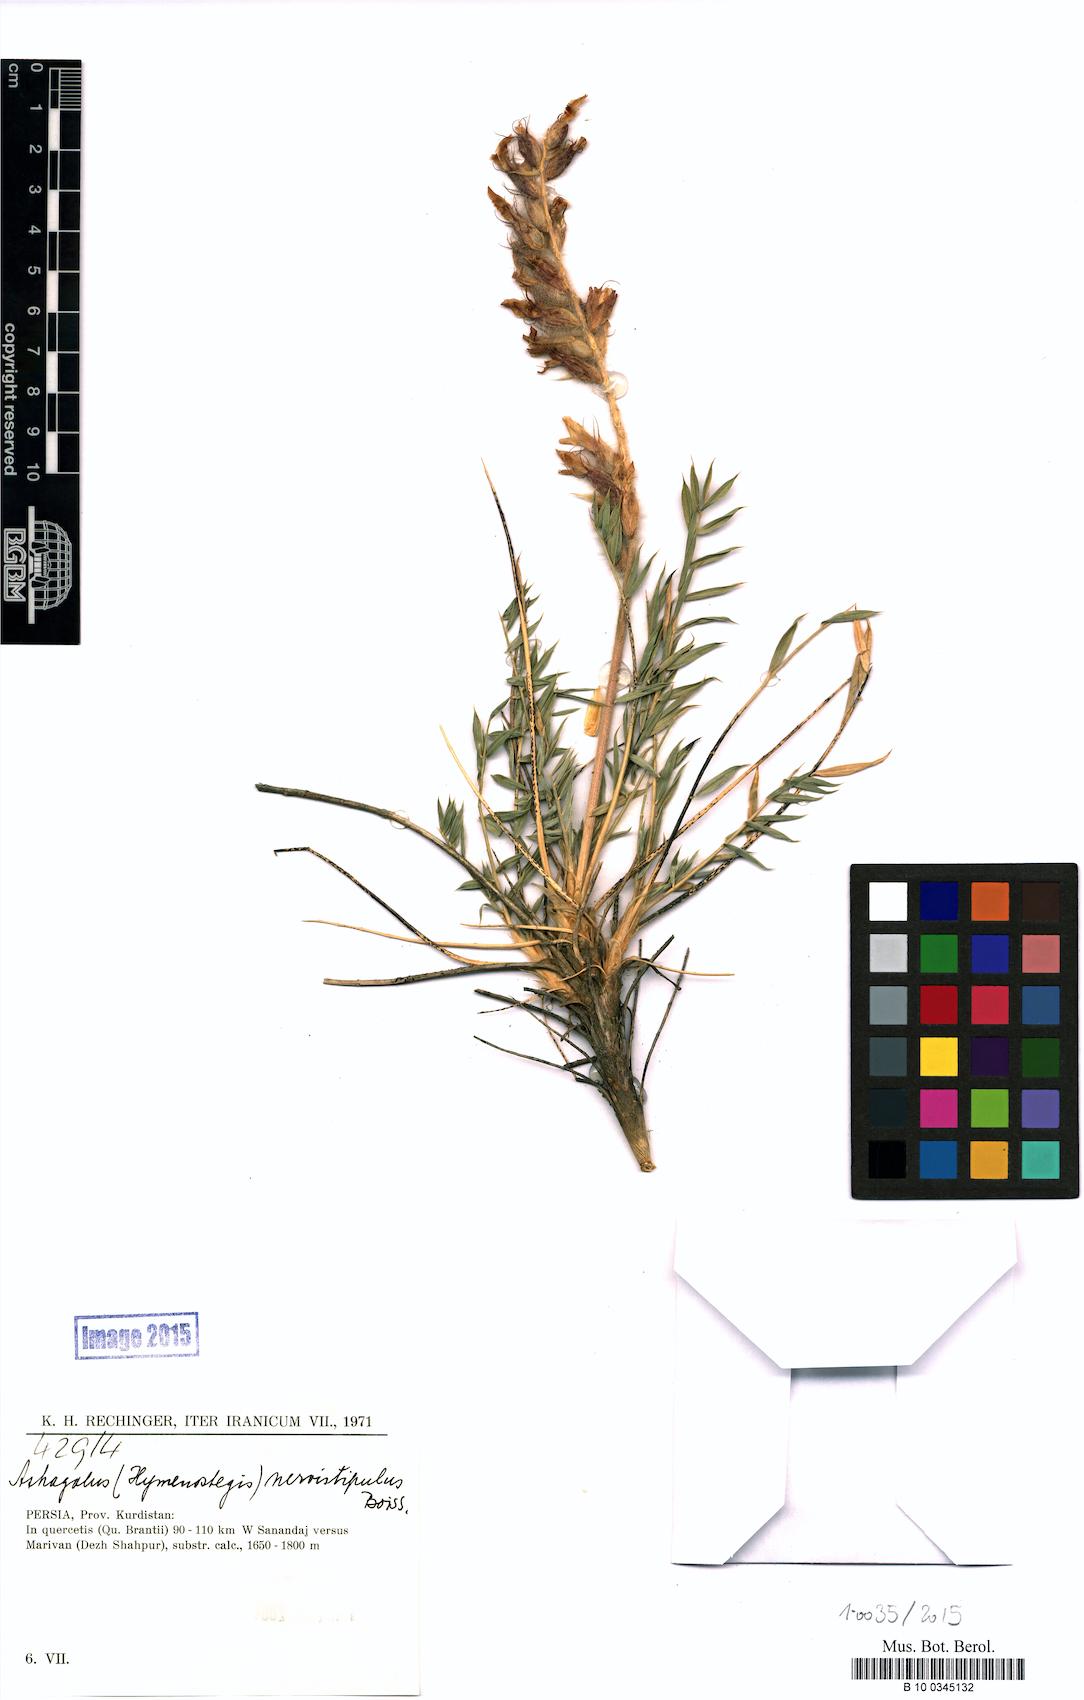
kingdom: Plantae
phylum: Tracheophyta
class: Magnoliopsida
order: Fabales
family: Fabaceae
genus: Astragalus
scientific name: Astragalus nervistipulus
